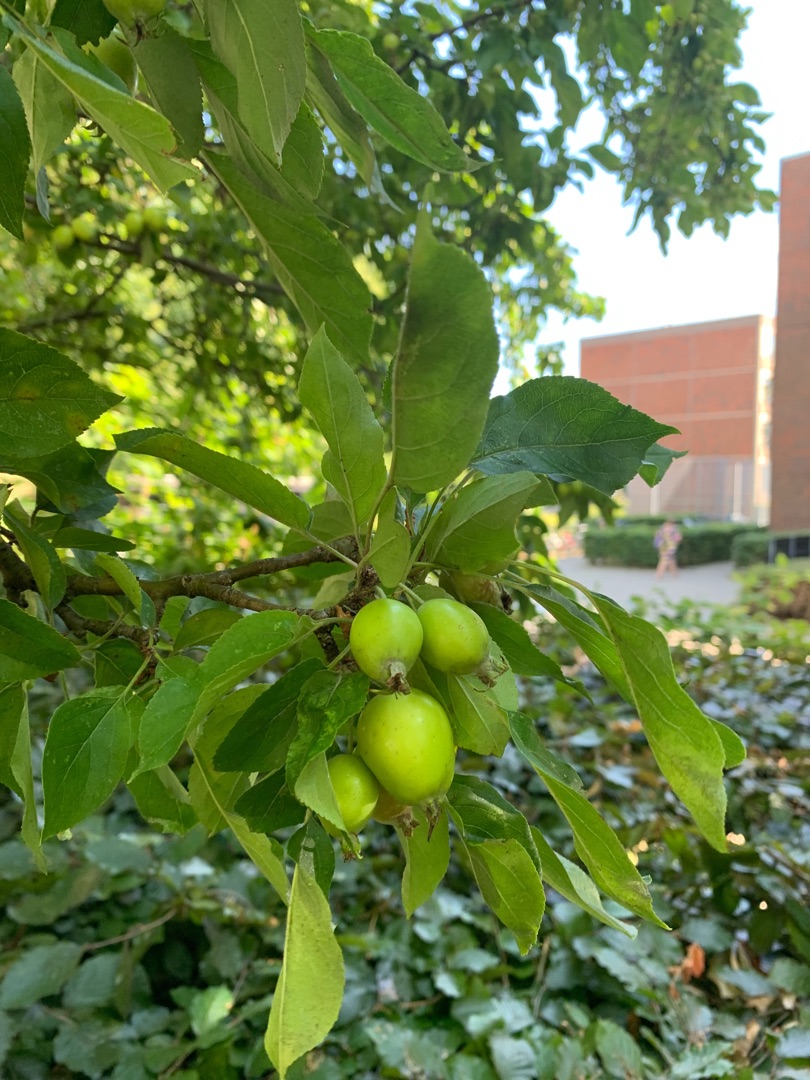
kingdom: Plantae
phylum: Tracheophyta
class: Magnoliopsida
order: Rosales
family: Rosaceae
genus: Malus
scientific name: Malus sylvestris
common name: Skov-æble
